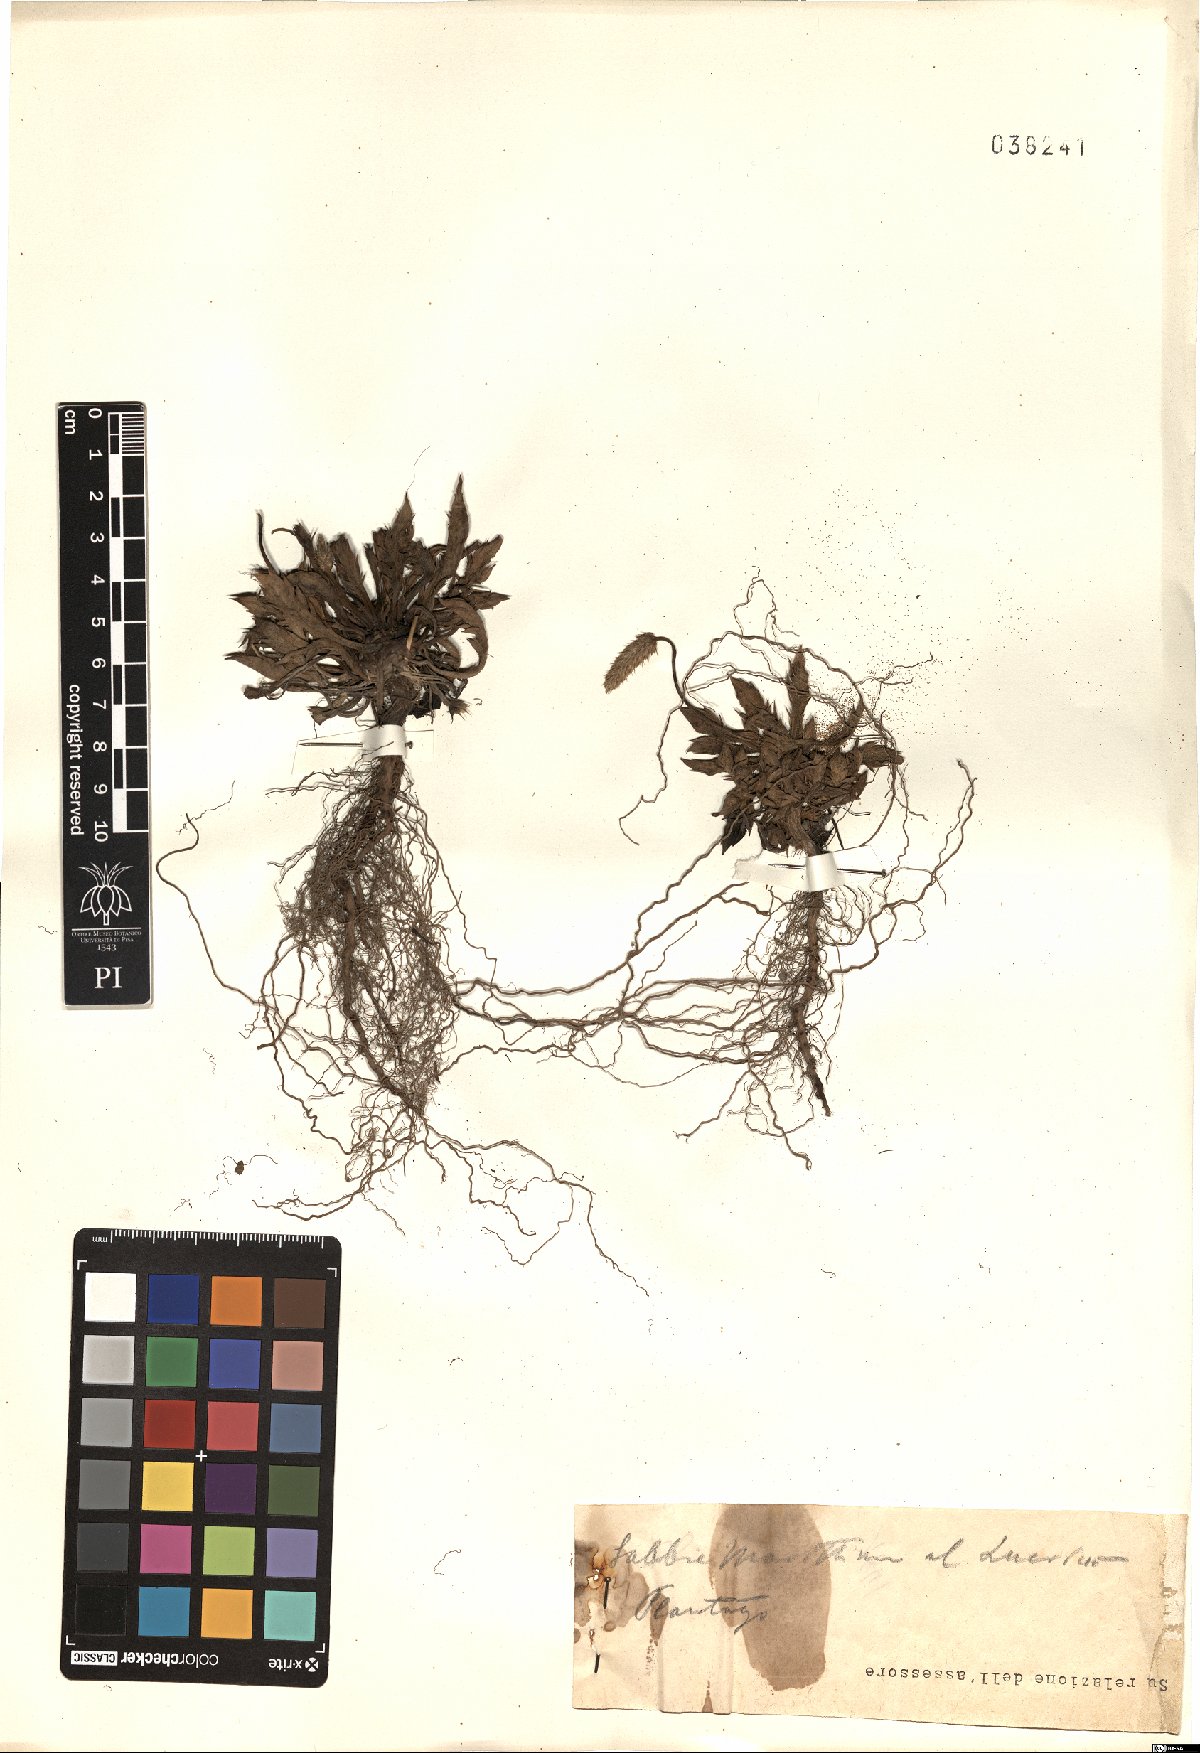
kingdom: Plantae
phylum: Tracheophyta
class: Magnoliopsida
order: Lamiales
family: Plantaginaceae
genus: Plantago
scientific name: Plantago
